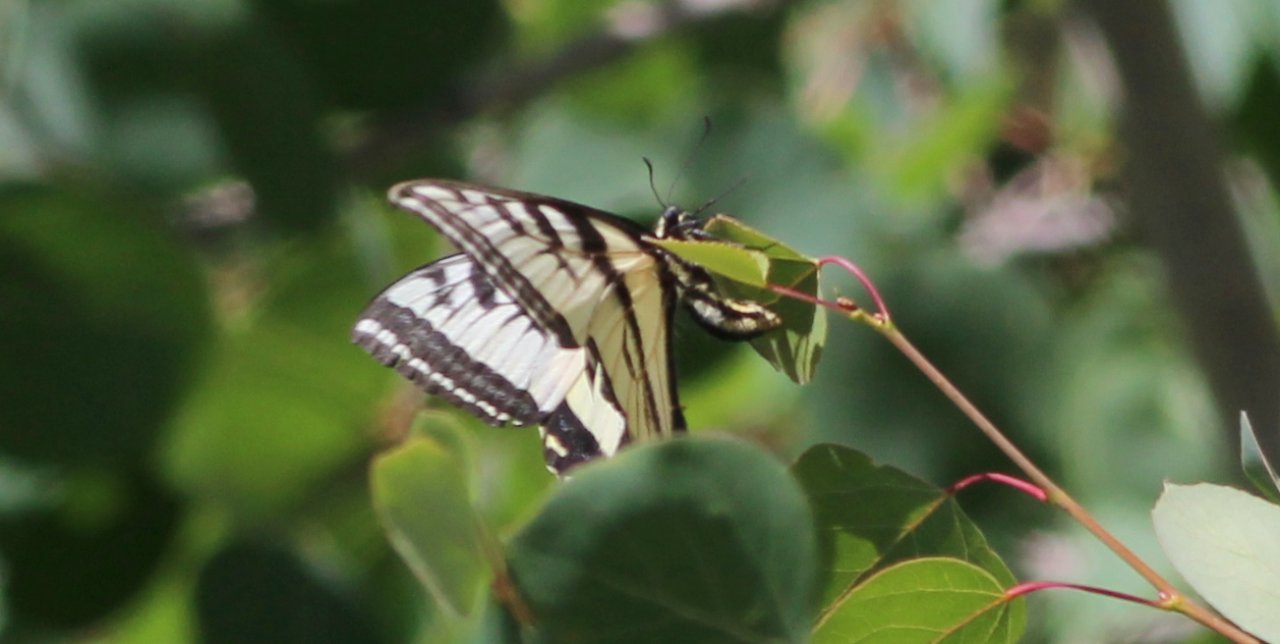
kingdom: Animalia
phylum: Arthropoda
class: Insecta
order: Lepidoptera
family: Papilionidae
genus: Pterourus
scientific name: Pterourus eurymedon
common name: Pale Swallowtail
